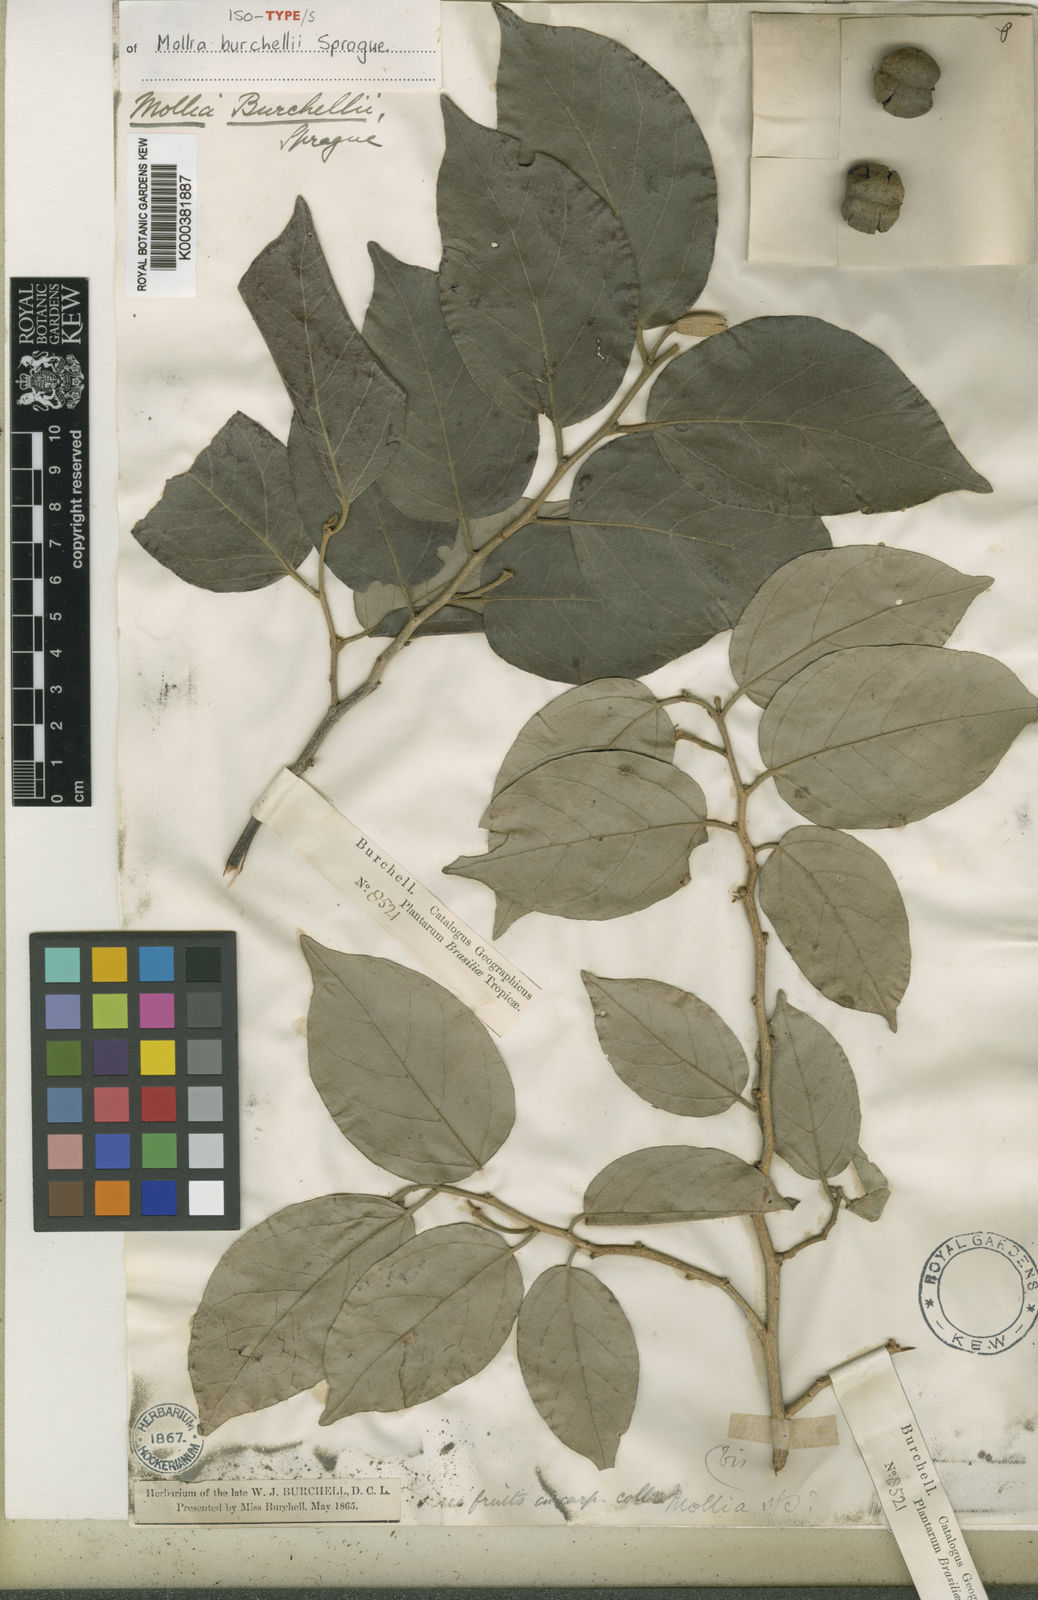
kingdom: Plantae
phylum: Tracheophyta
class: Magnoliopsida
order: Malvales
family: Malvaceae
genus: Mollia
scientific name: Mollia burchellii
